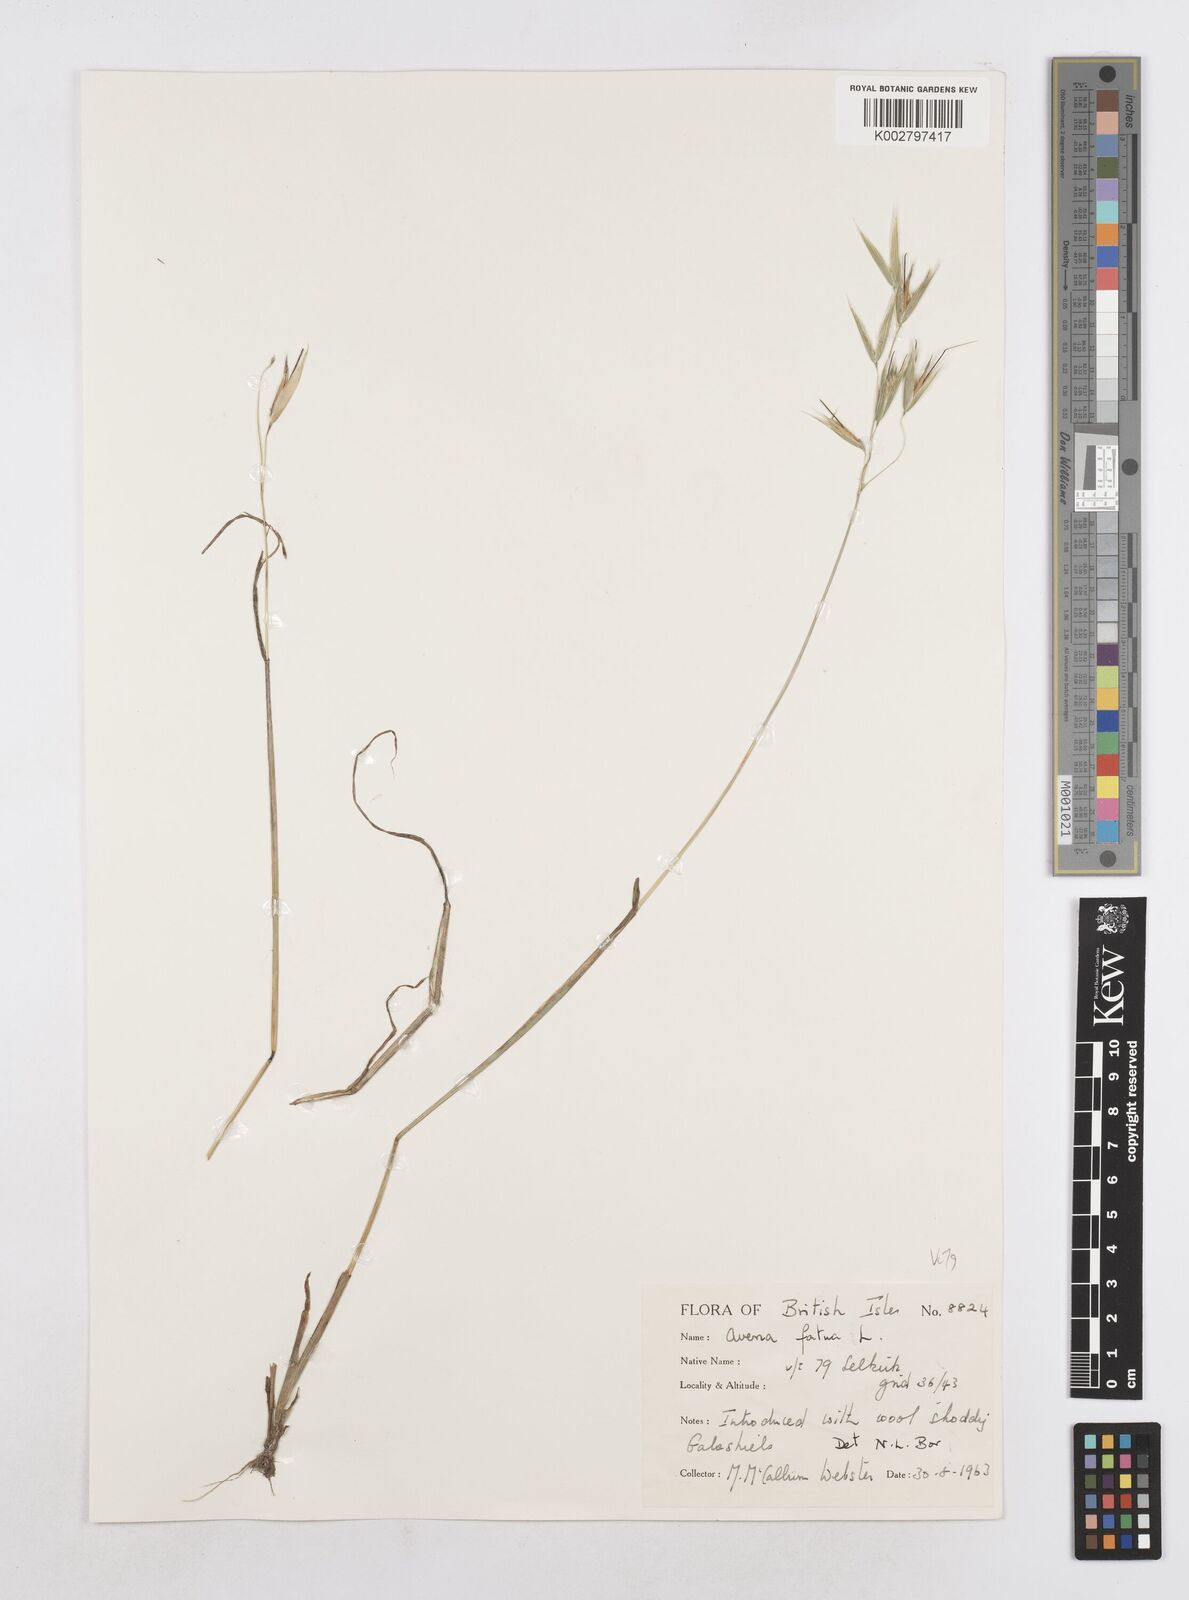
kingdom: Plantae
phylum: Tracheophyta
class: Liliopsida
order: Poales
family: Poaceae
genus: Avena
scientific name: Avena fatua
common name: Wild oat
